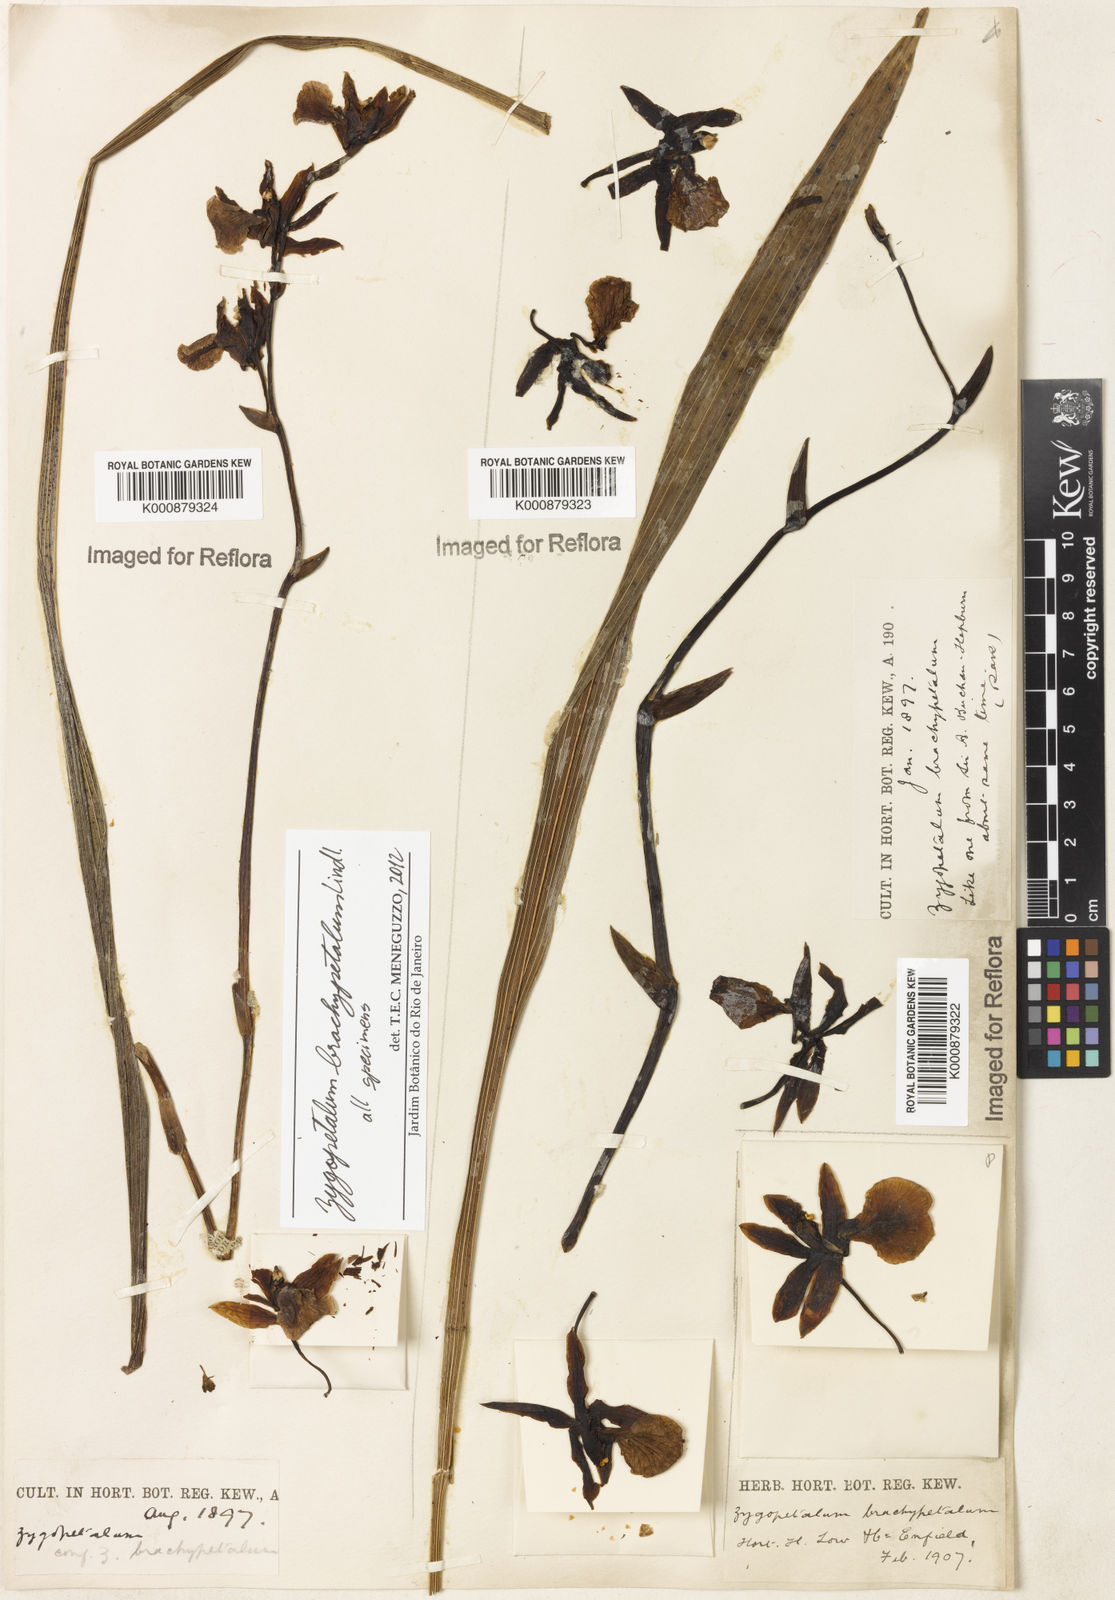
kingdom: Plantae
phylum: Tracheophyta
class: Liliopsida
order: Asparagales
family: Orchidaceae
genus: Zygopetalum
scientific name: Zygopetalum brachypetalum
